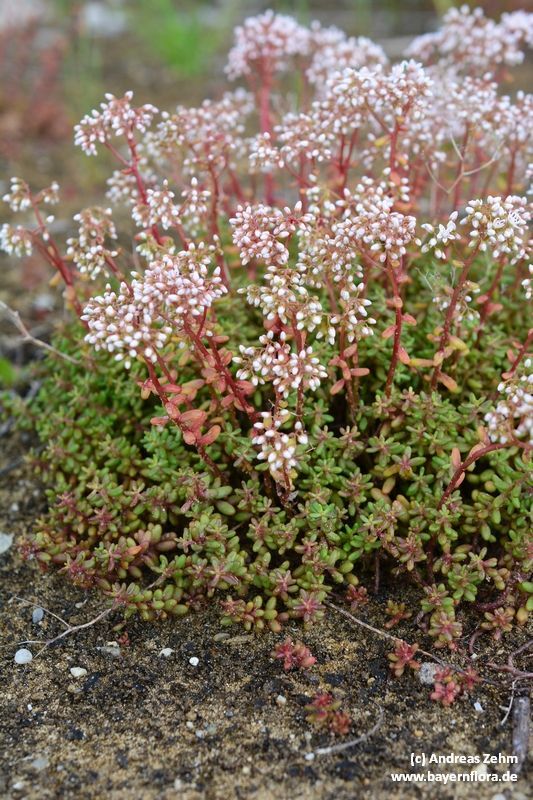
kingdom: Plantae
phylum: Tracheophyta
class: Magnoliopsida
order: Saxifragales
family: Crassulaceae
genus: Sedum
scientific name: Sedum album
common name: White stonecrop
